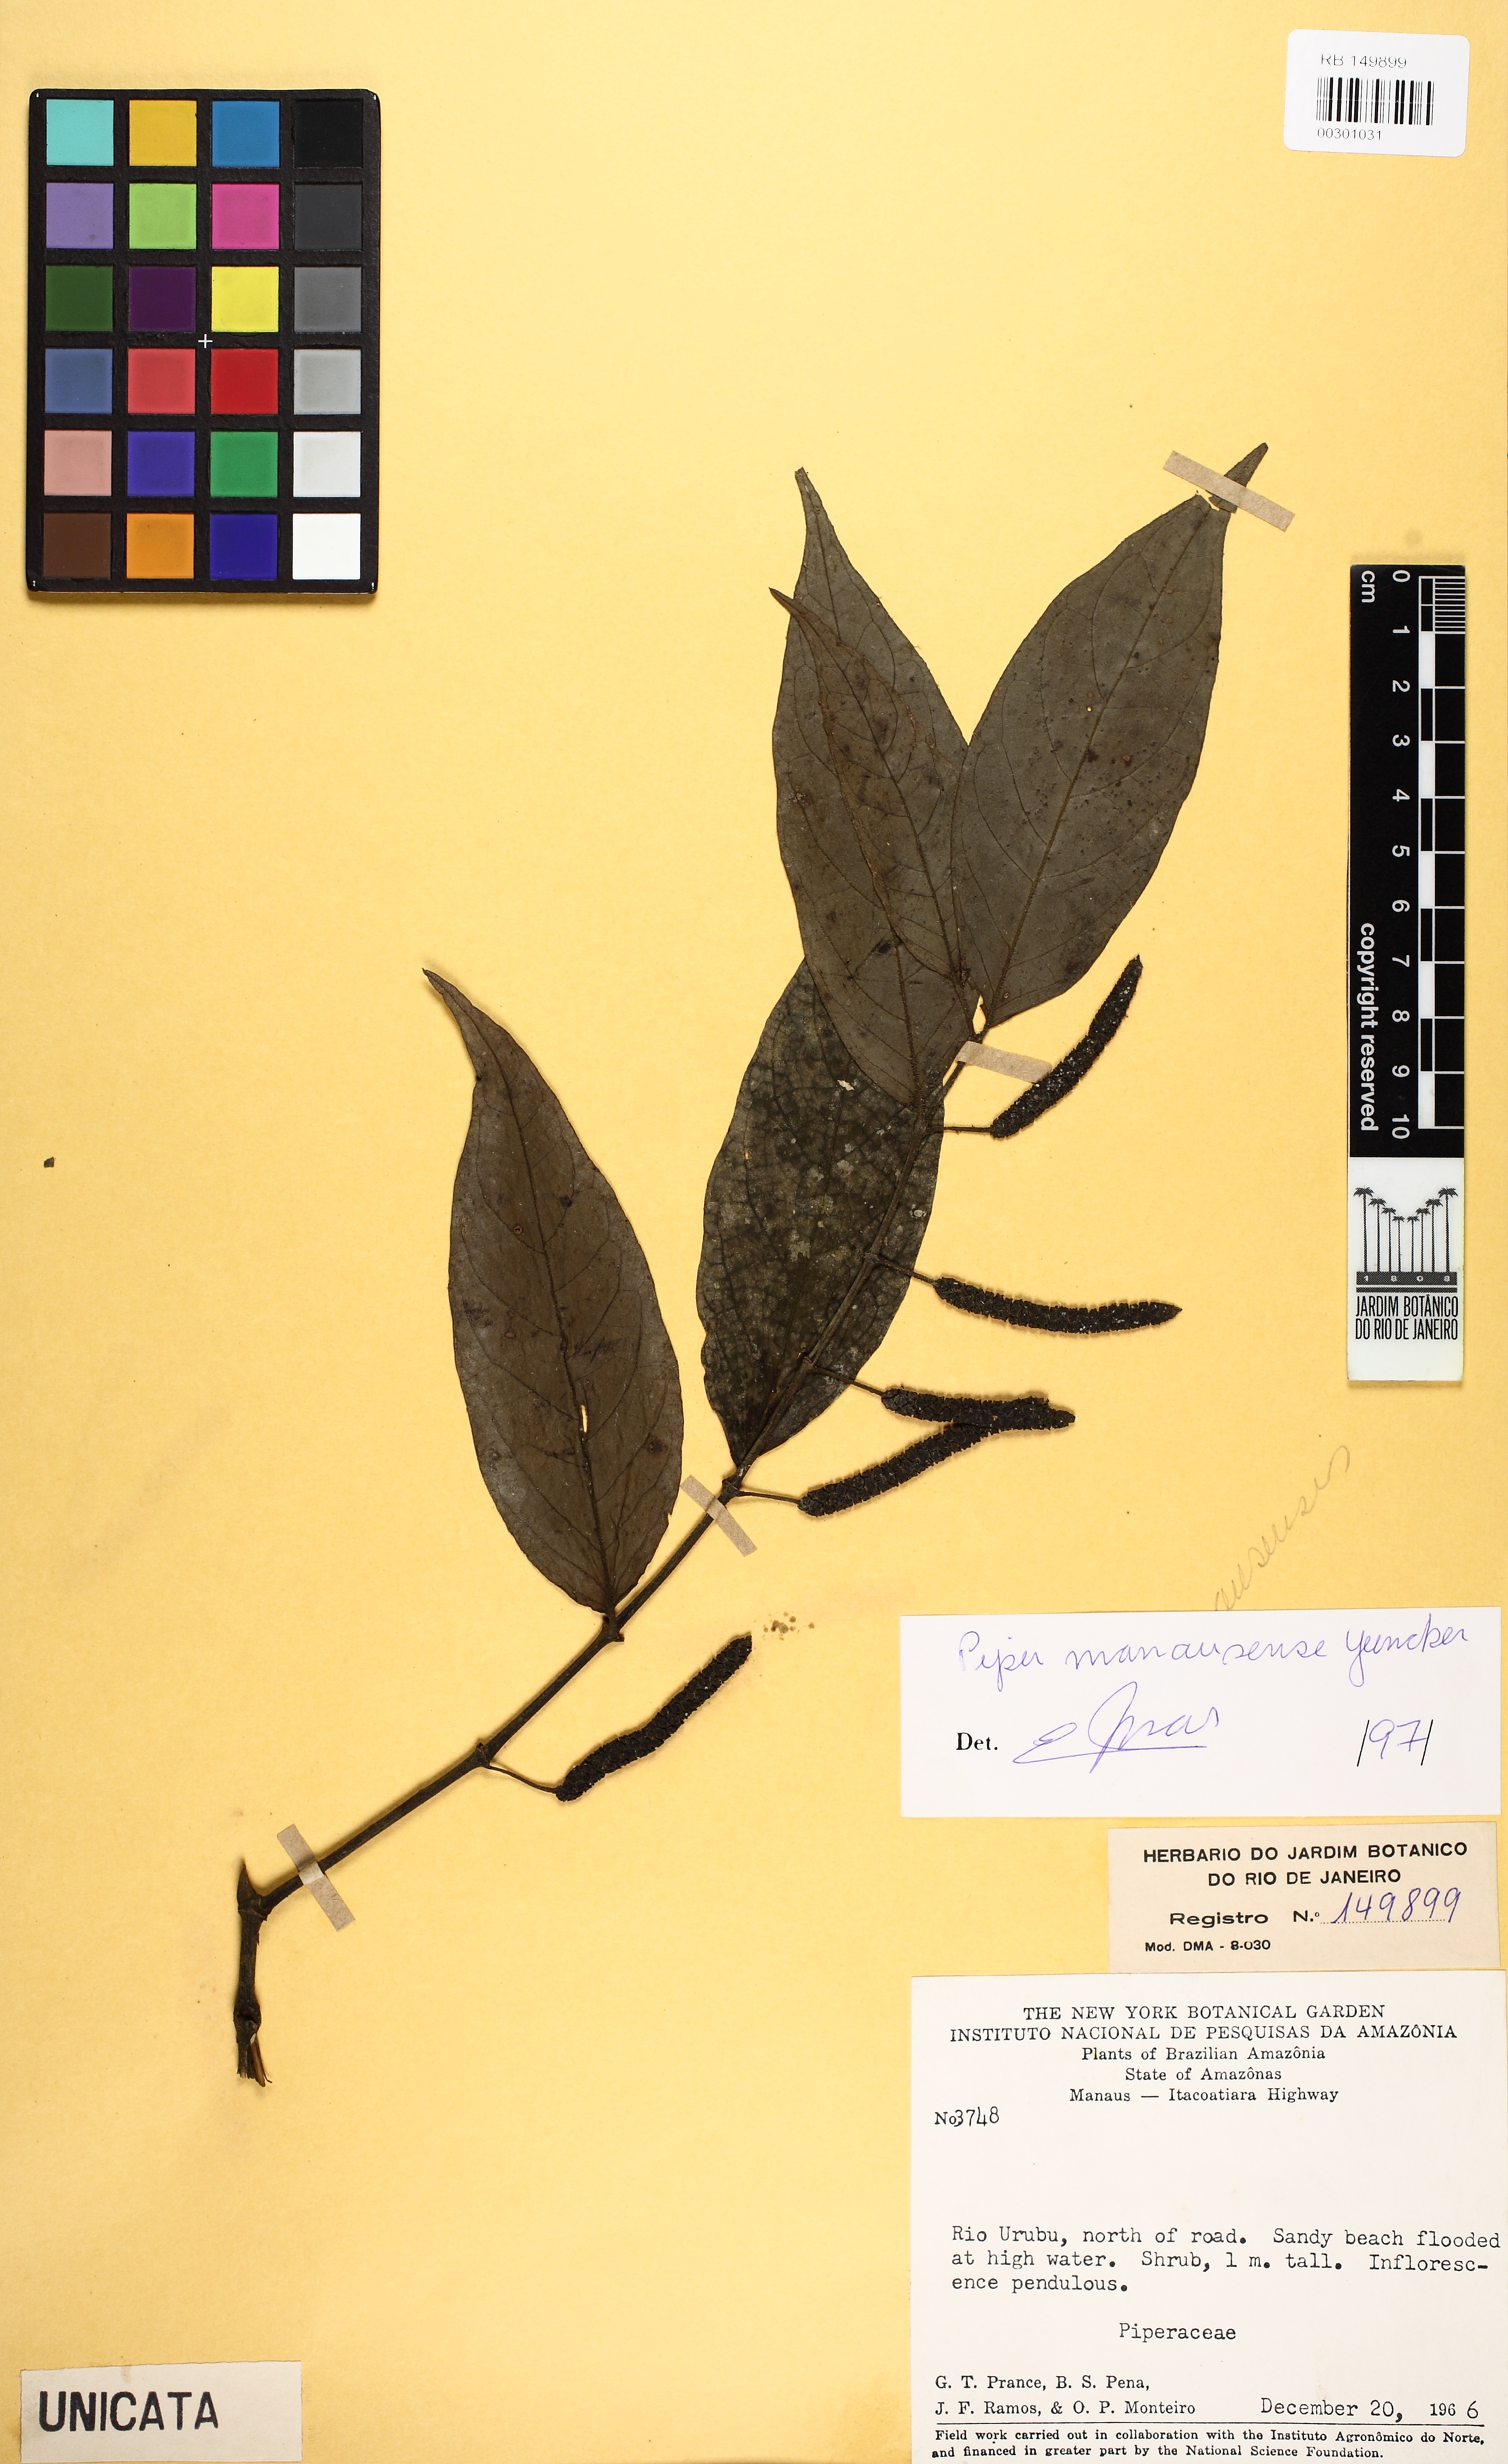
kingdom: Plantae
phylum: Tracheophyta
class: Magnoliopsida
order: Piperales
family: Piperaceae
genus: Piper
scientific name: Piper manausense
